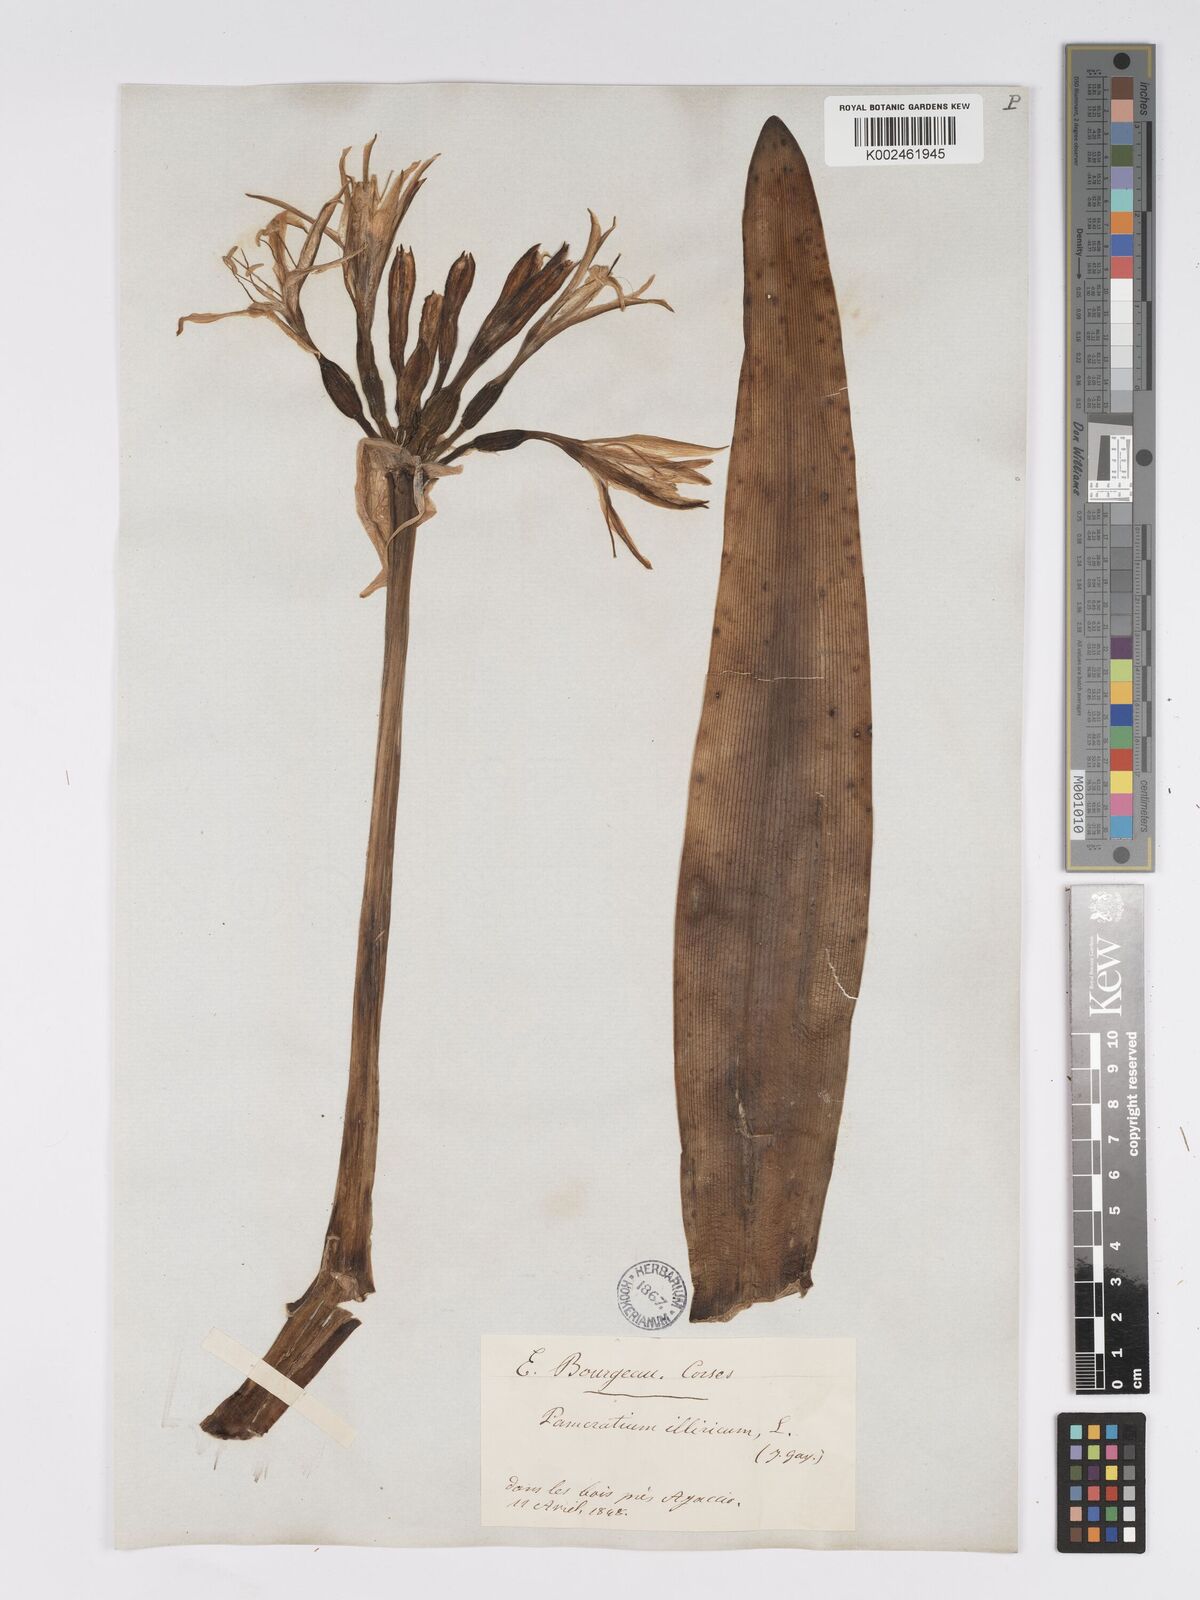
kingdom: Plantae
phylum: Tracheophyta
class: Liliopsida
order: Asparagales
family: Amaryllidaceae
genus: Pancratium
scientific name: Pancratium illyricum
